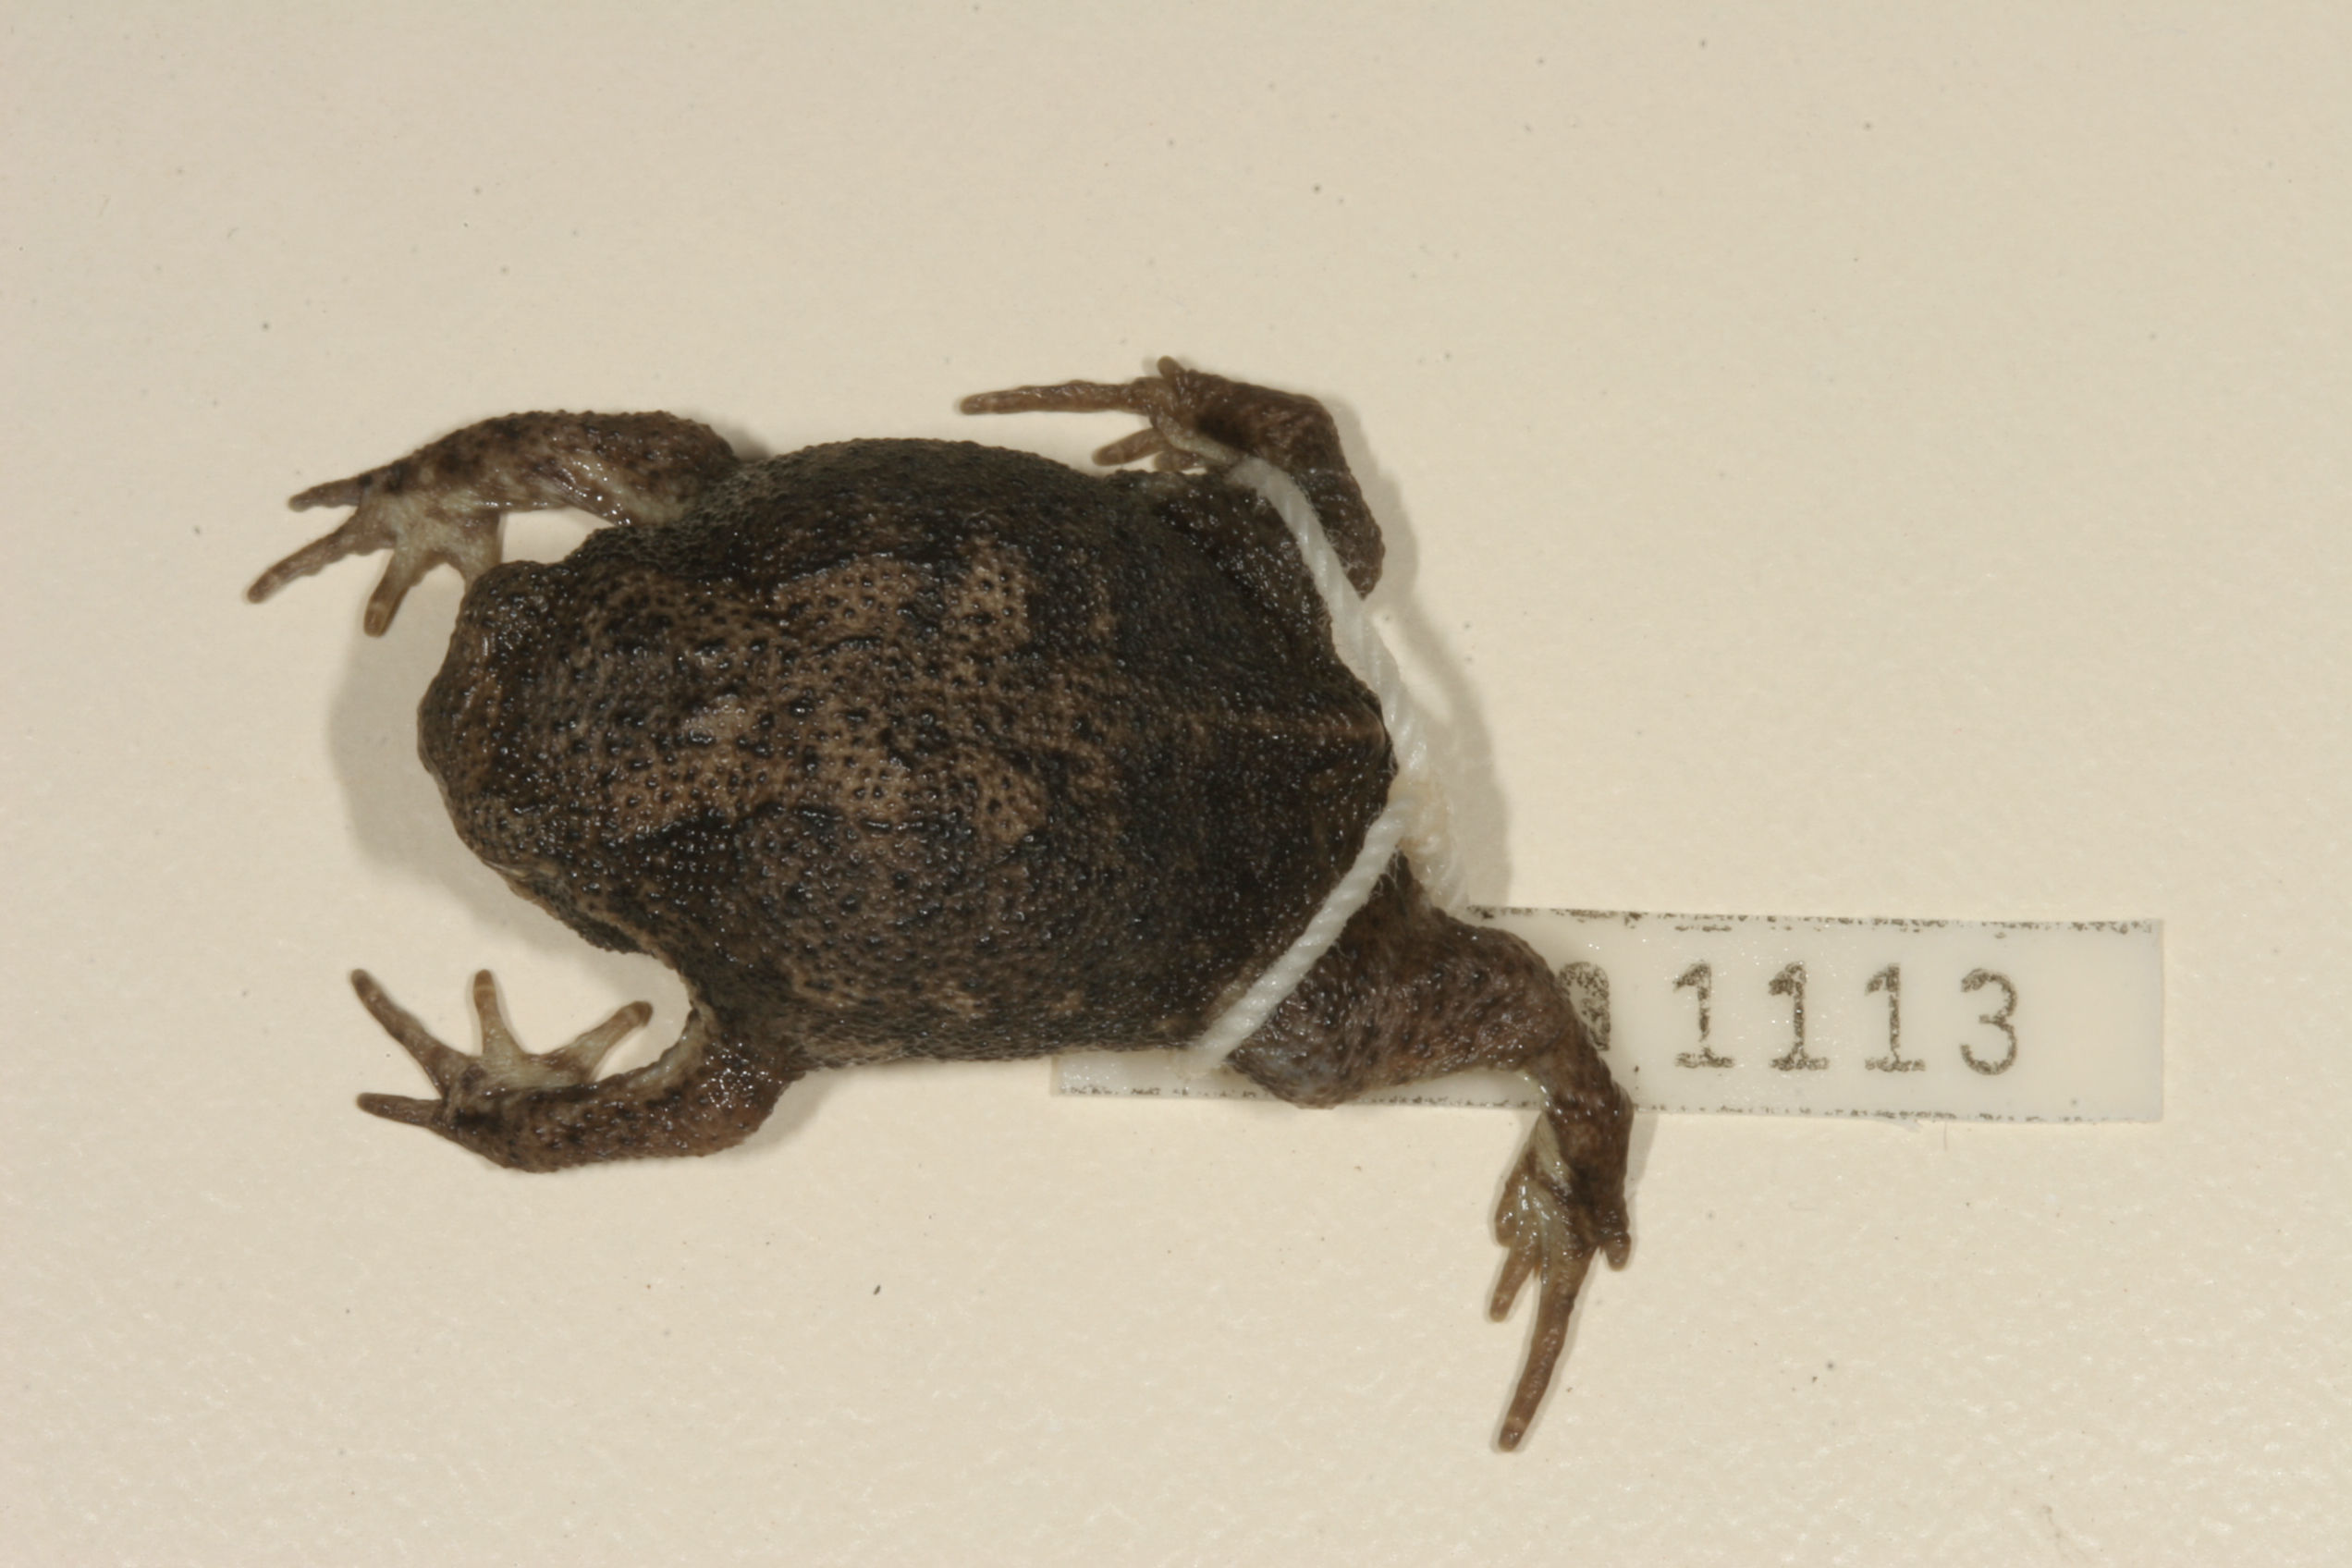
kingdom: Animalia
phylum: Chordata
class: Amphibia
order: Anura
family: Brevicipitidae
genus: Breviceps
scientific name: Breviceps sylvestris
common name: Northern forest rain frog
